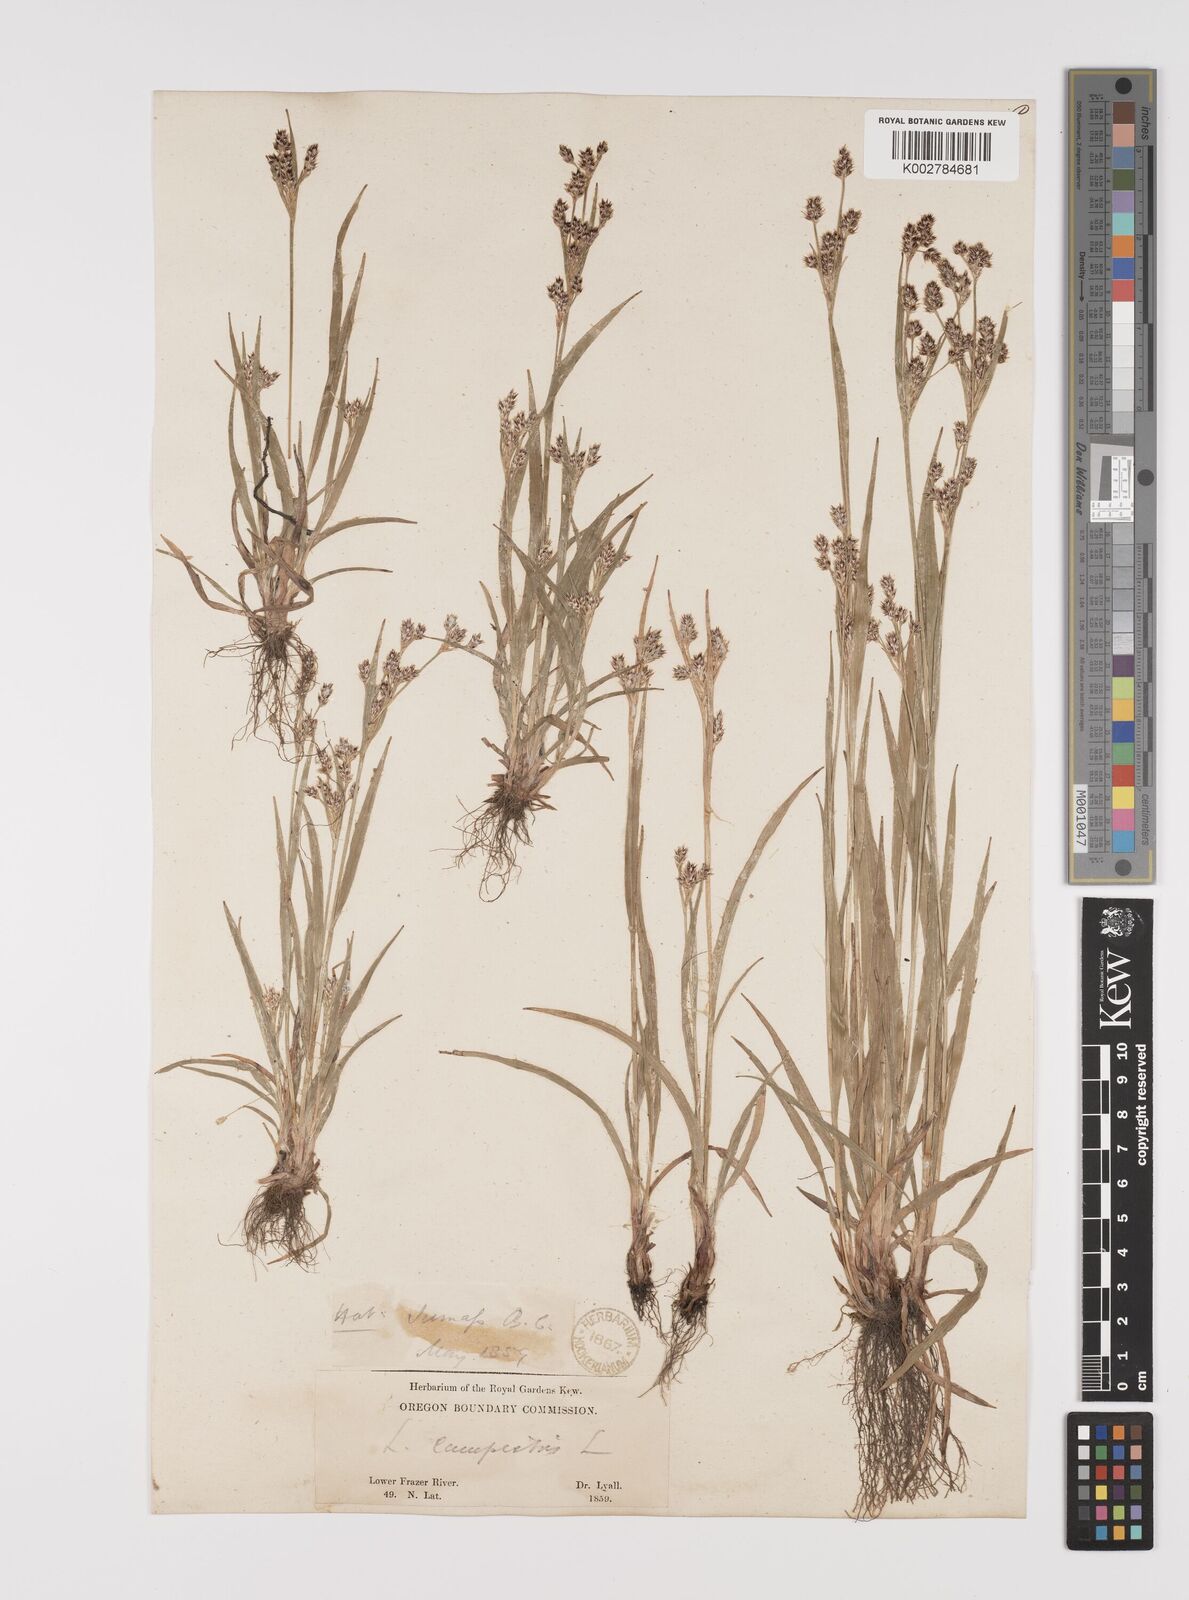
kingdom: Plantae
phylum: Tracheophyta
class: Liliopsida
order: Poales
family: Juncaceae
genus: Luzula
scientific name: Luzula campestris
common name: Field wood-rush
